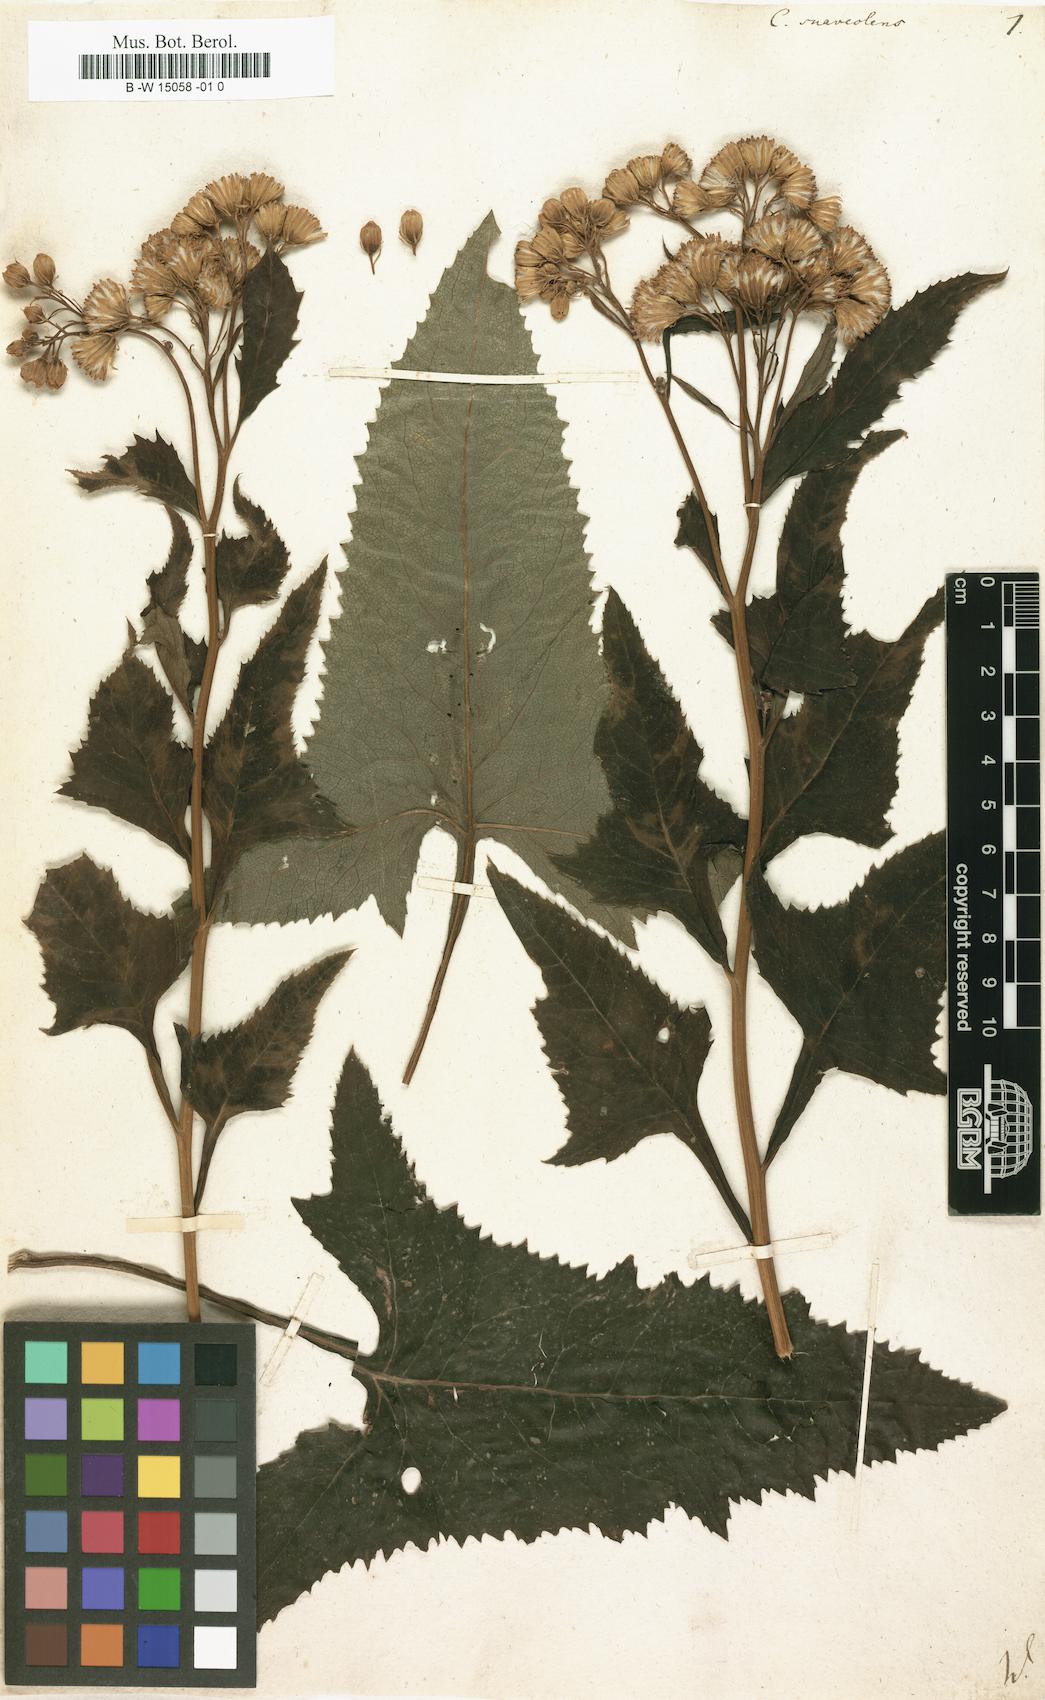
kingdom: Plantae
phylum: Tracheophyta
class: Magnoliopsida
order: Asterales
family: Asteraceae
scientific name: Asteraceae
